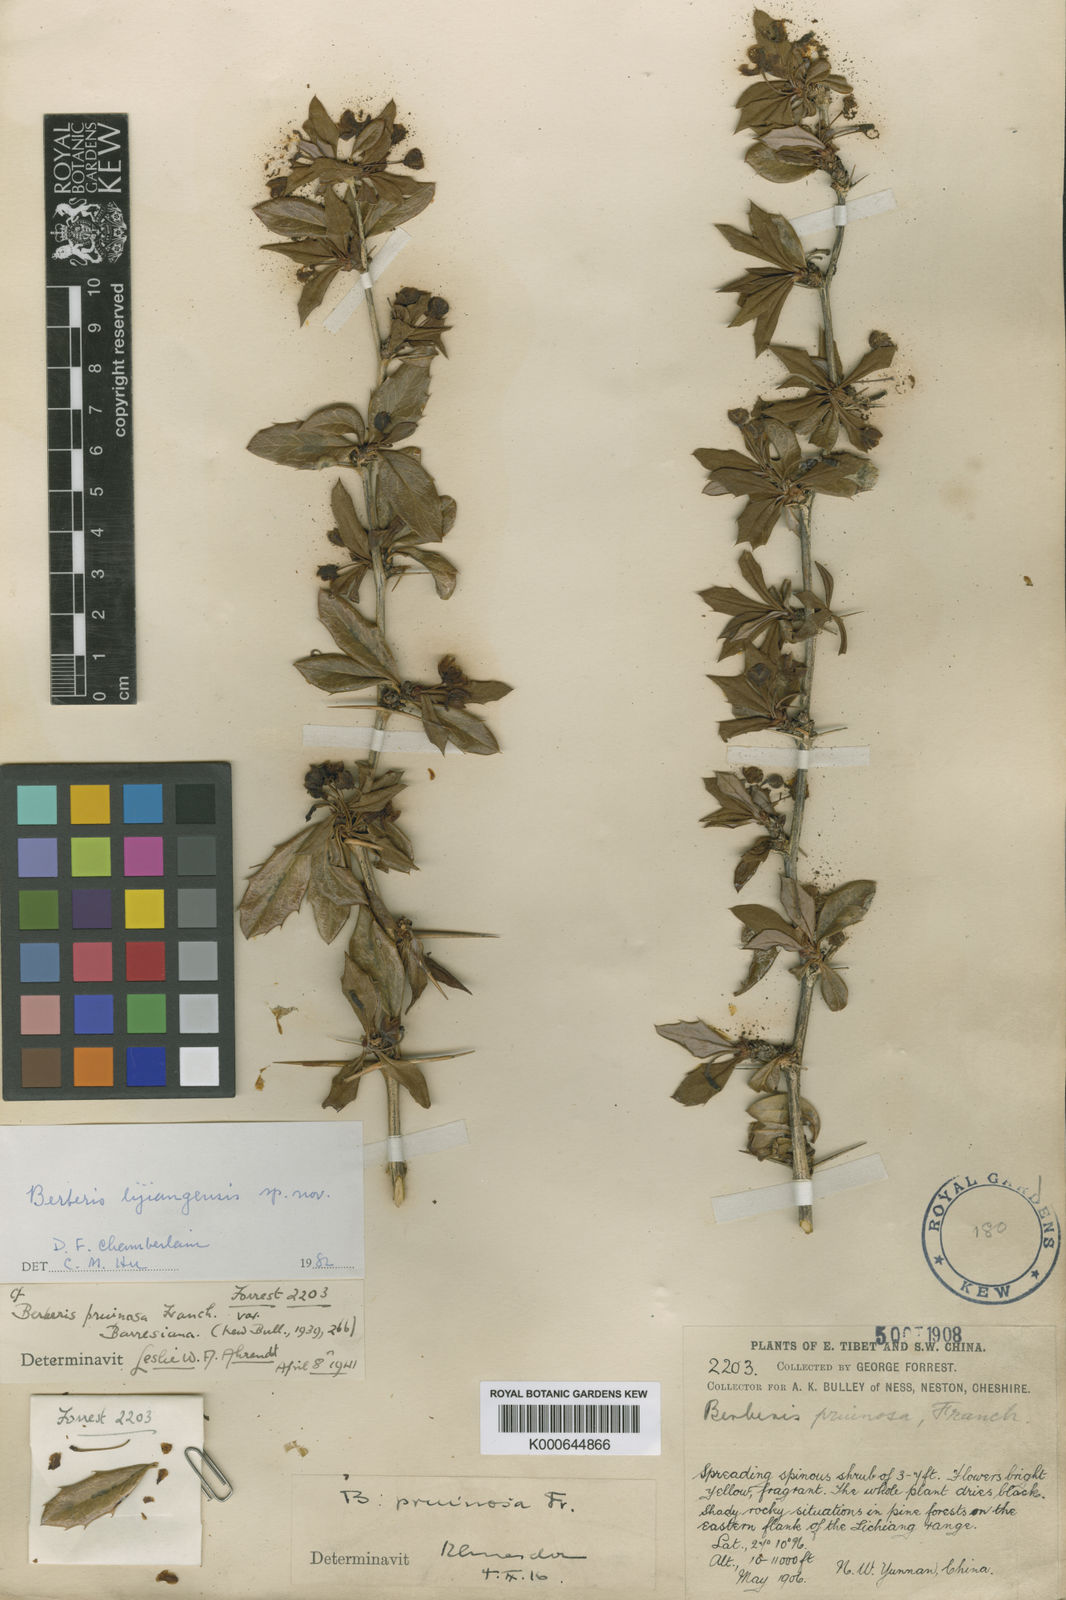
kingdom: Plantae
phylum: Tracheophyta
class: Magnoliopsida
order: Ranunculales
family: Berberidaceae
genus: Berberis
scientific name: Berberis lijiangensis
